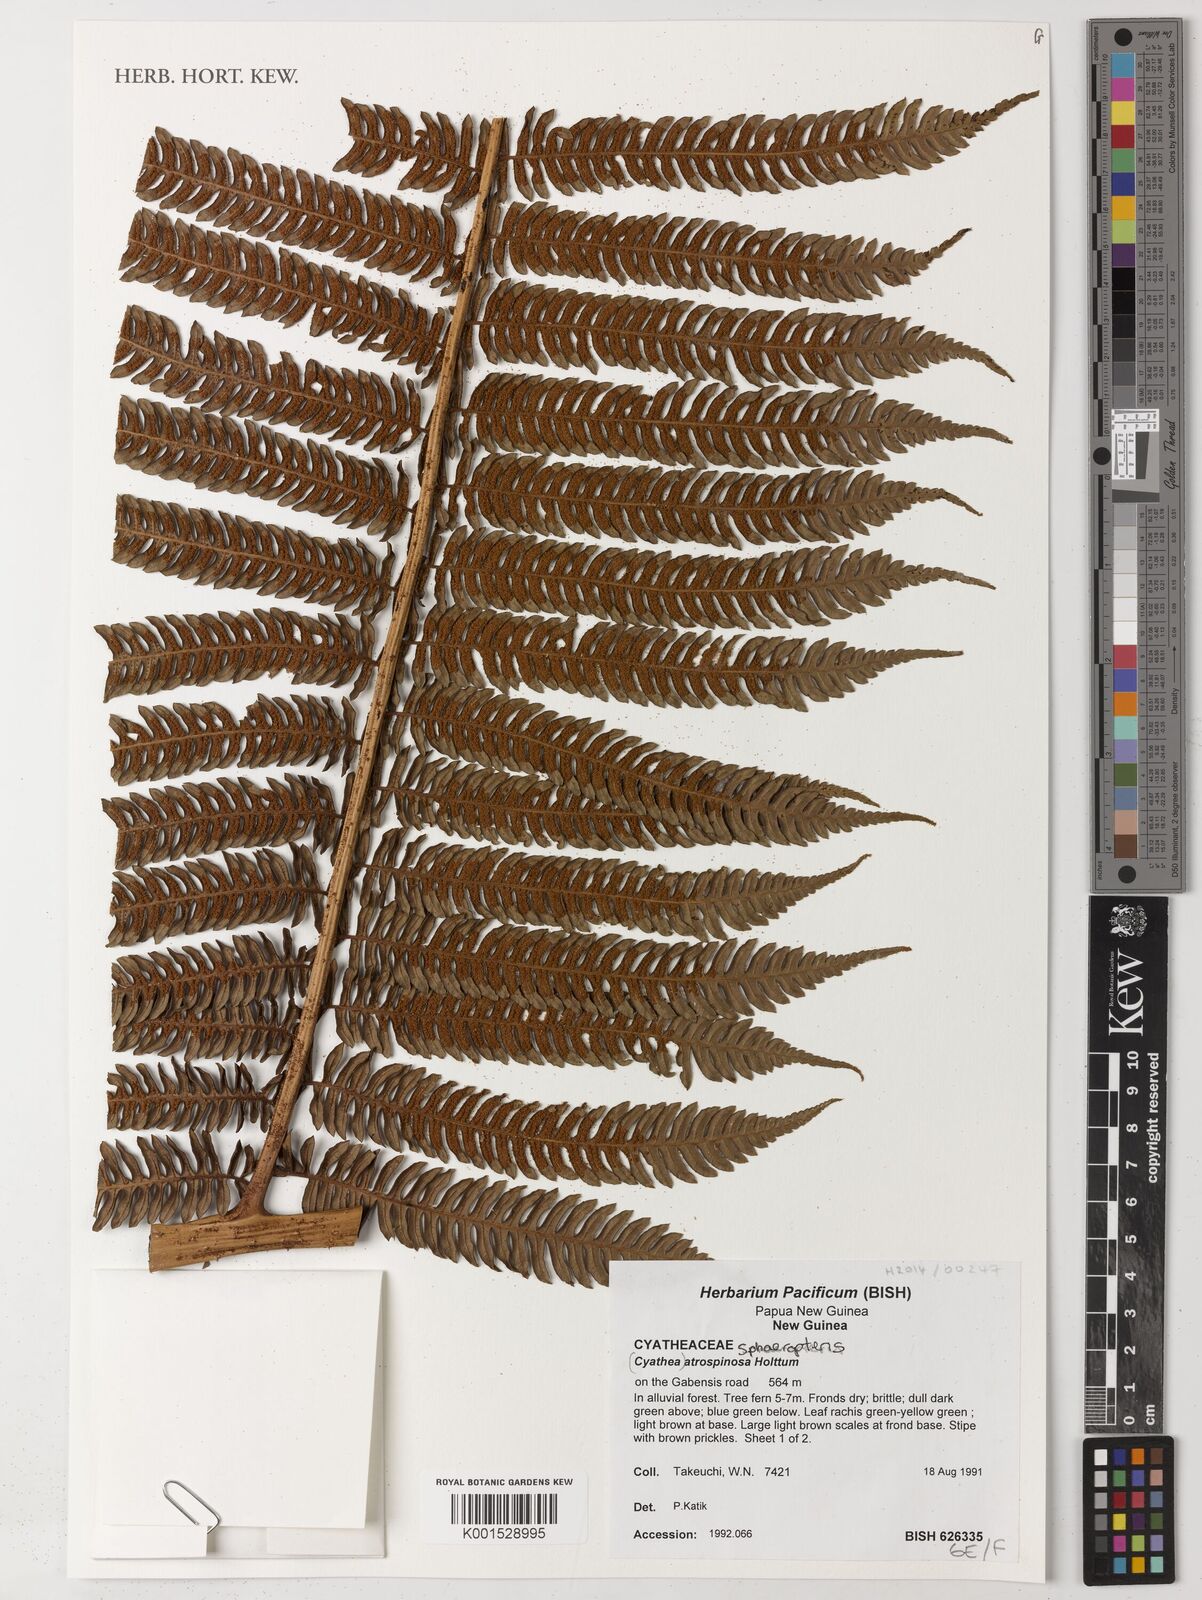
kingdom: Plantae
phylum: Tracheophyta
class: Polypodiopsida
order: Cyatheales
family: Cyatheaceae
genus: Sphaeropteris
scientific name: Sphaeropteris atrospinosa
